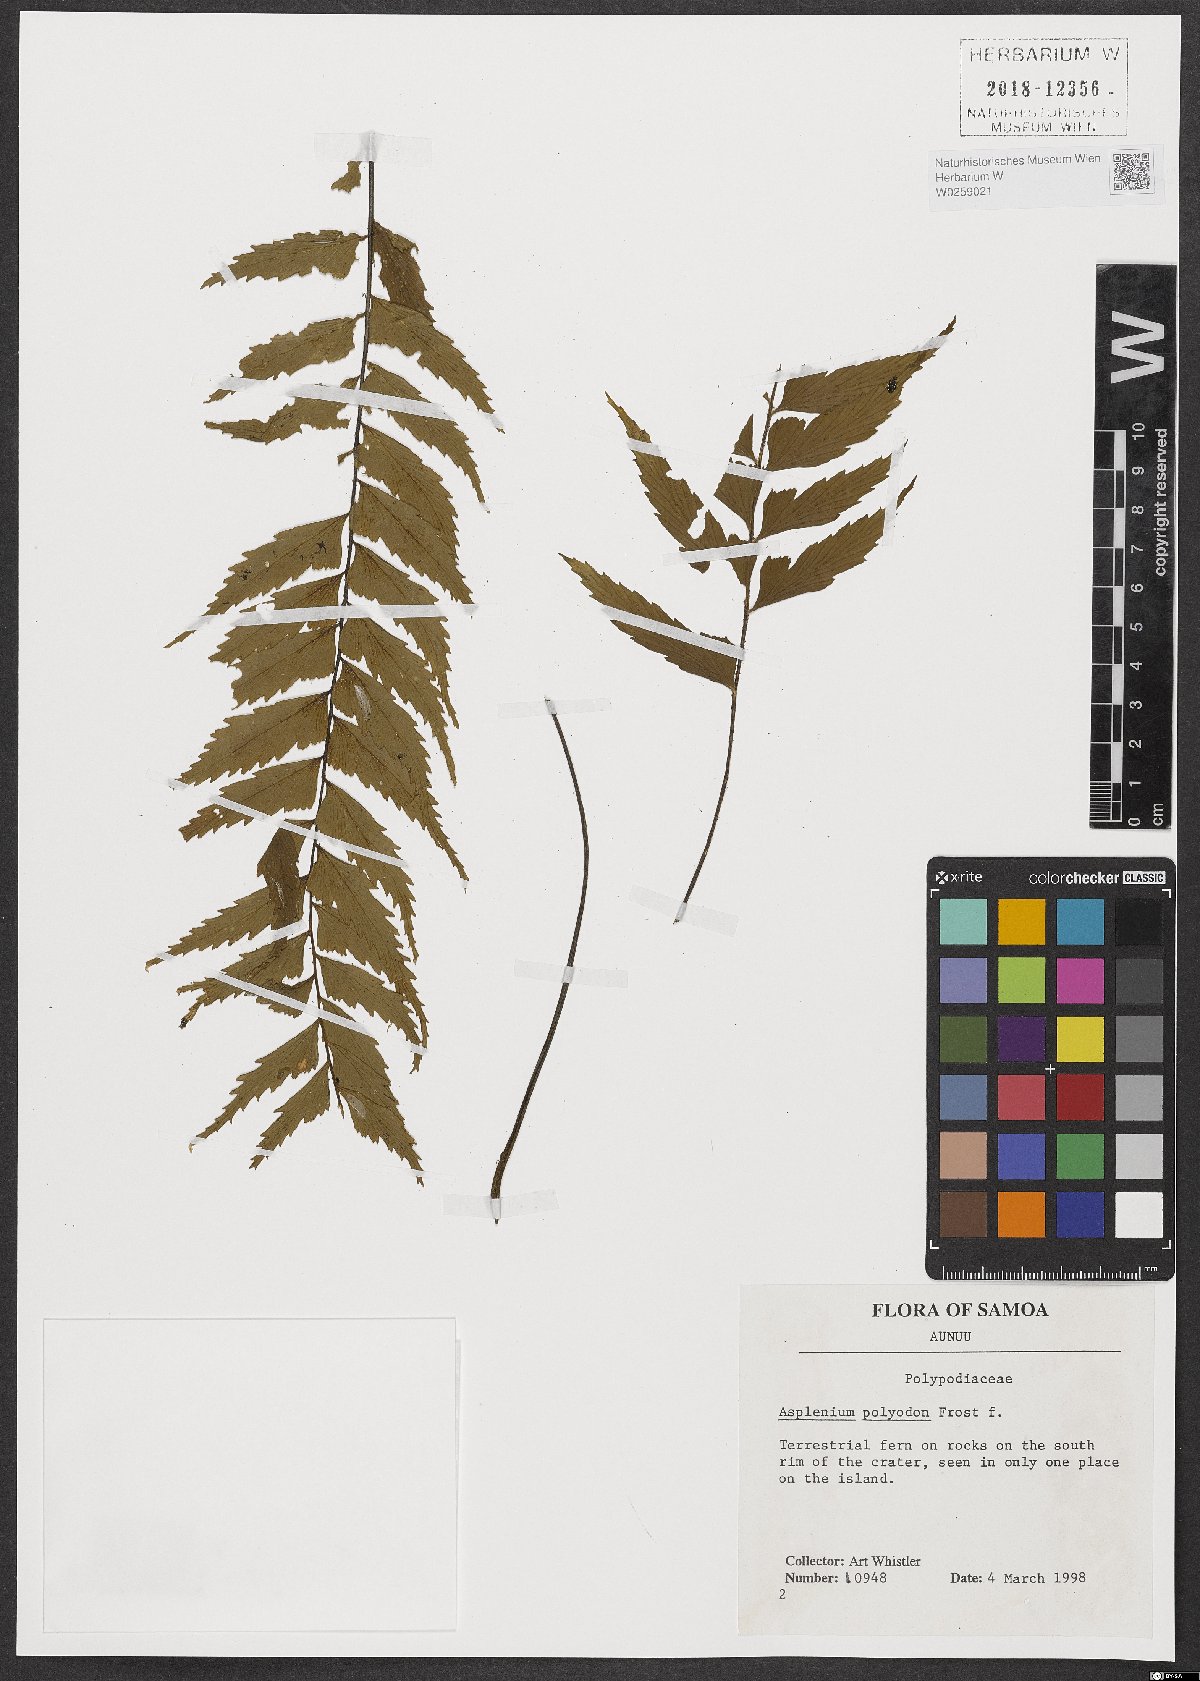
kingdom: Plantae
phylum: Tracheophyta
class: Polypodiopsida
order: Polypodiales
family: Aspleniaceae
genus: Asplenium
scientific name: Asplenium polyodon
